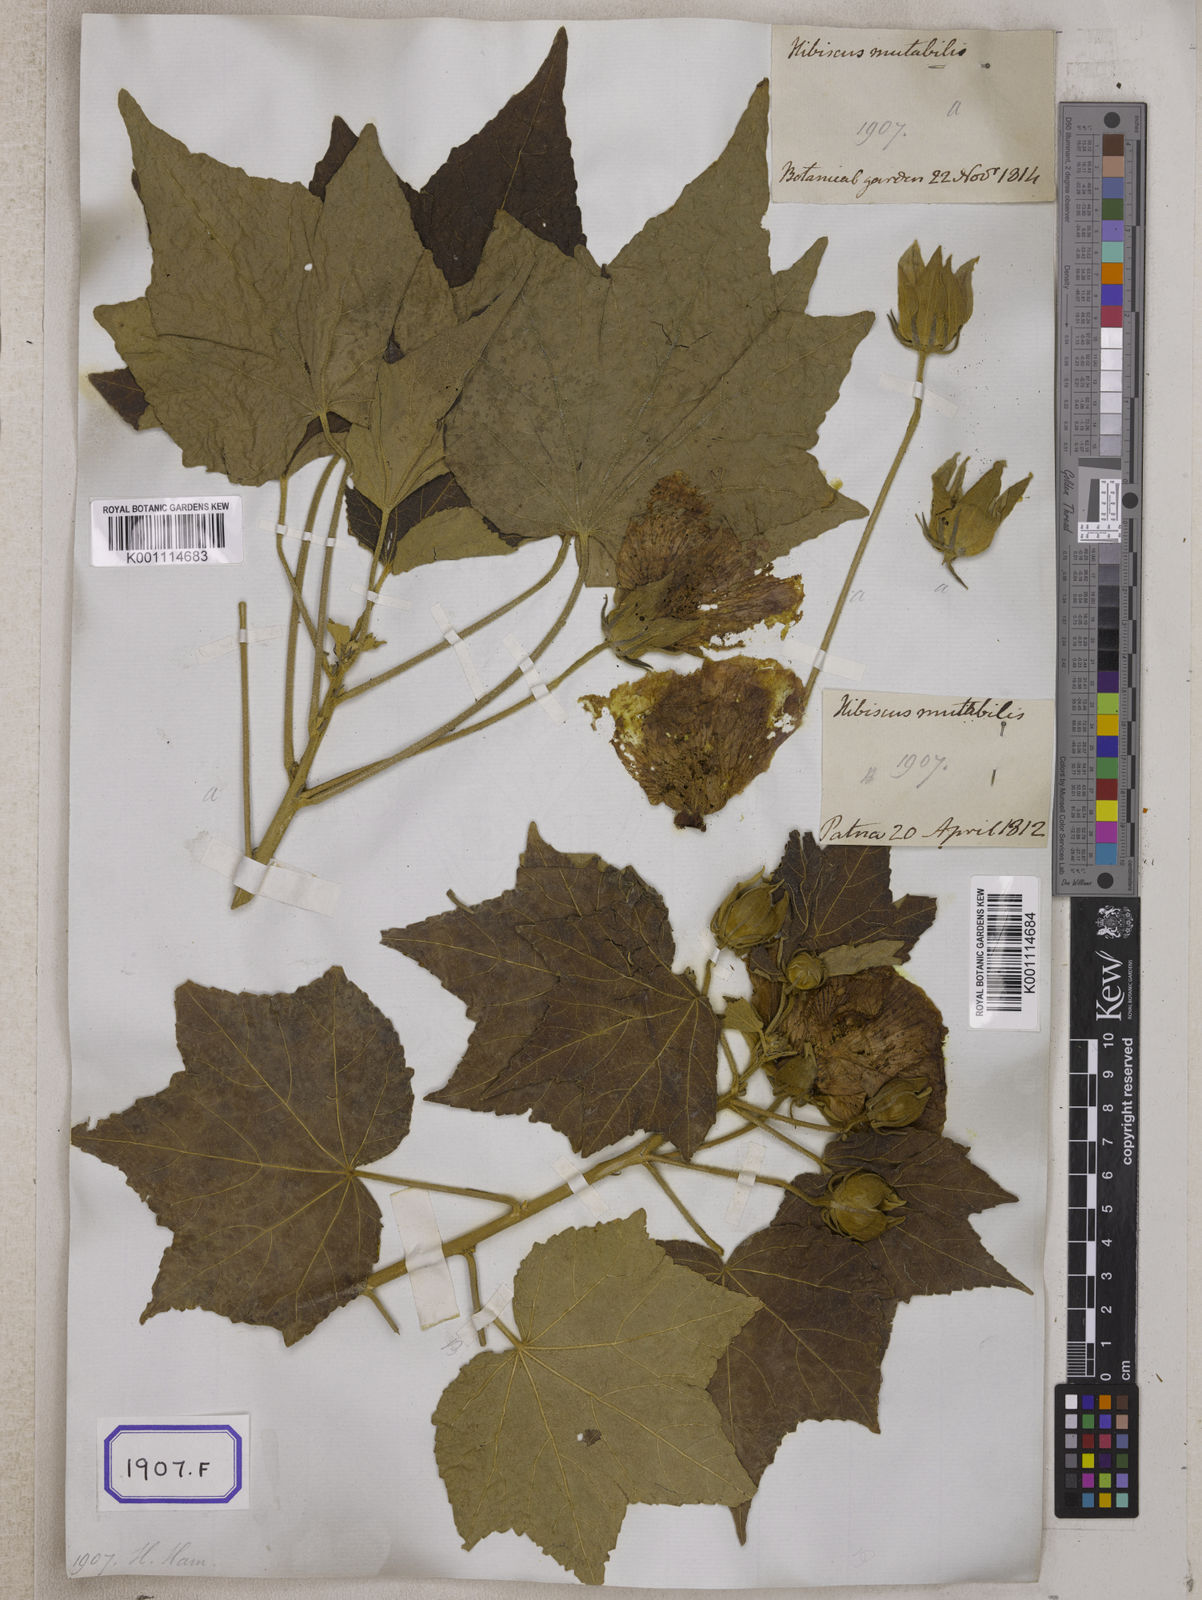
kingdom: Plantae
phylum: Tracheophyta
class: Magnoliopsida
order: Malvales
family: Malvaceae
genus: Hibiscus
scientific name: Hibiscus mutabilis
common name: Dixie rosemallow
